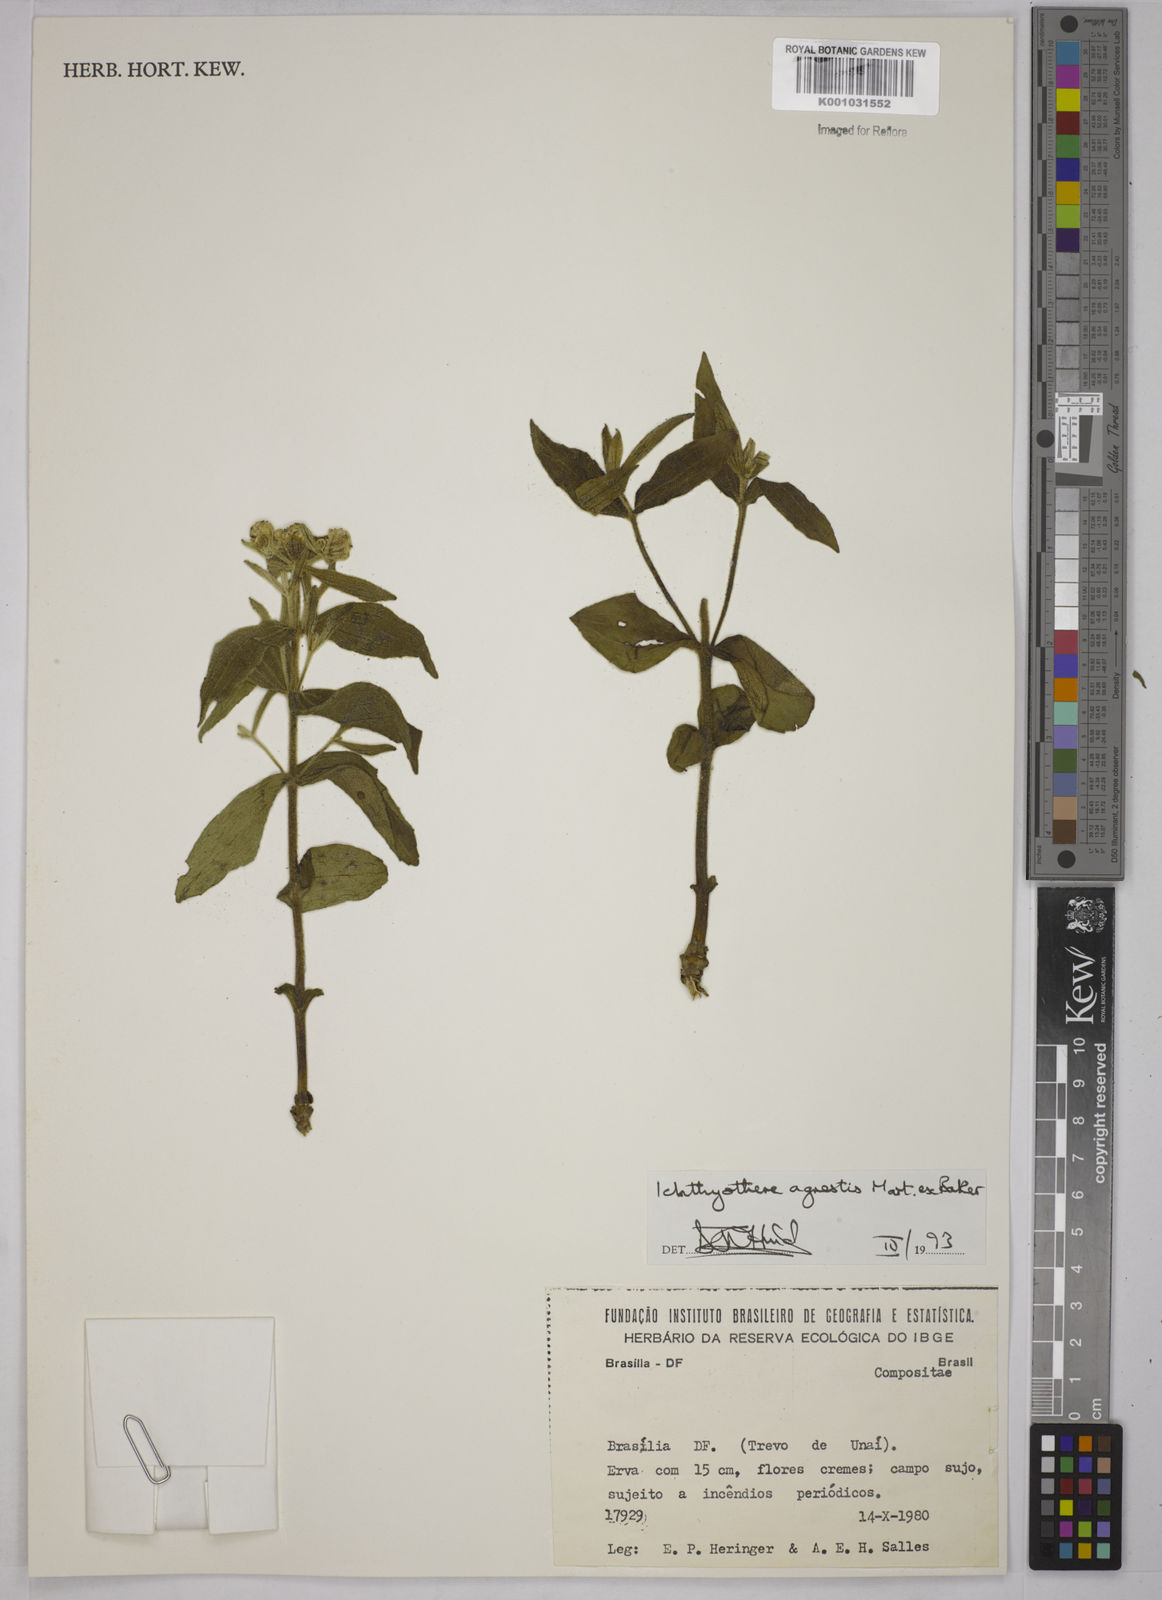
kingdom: Plantae
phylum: Tracheophyta
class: Magnoliopsida
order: Asterales
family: Asteraceae
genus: Ichthyothere
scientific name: Ichthyothere integrifolia
